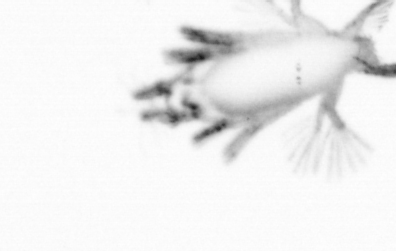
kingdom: Animalia
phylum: Annelida
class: Polychaeta
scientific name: Polychaeta
